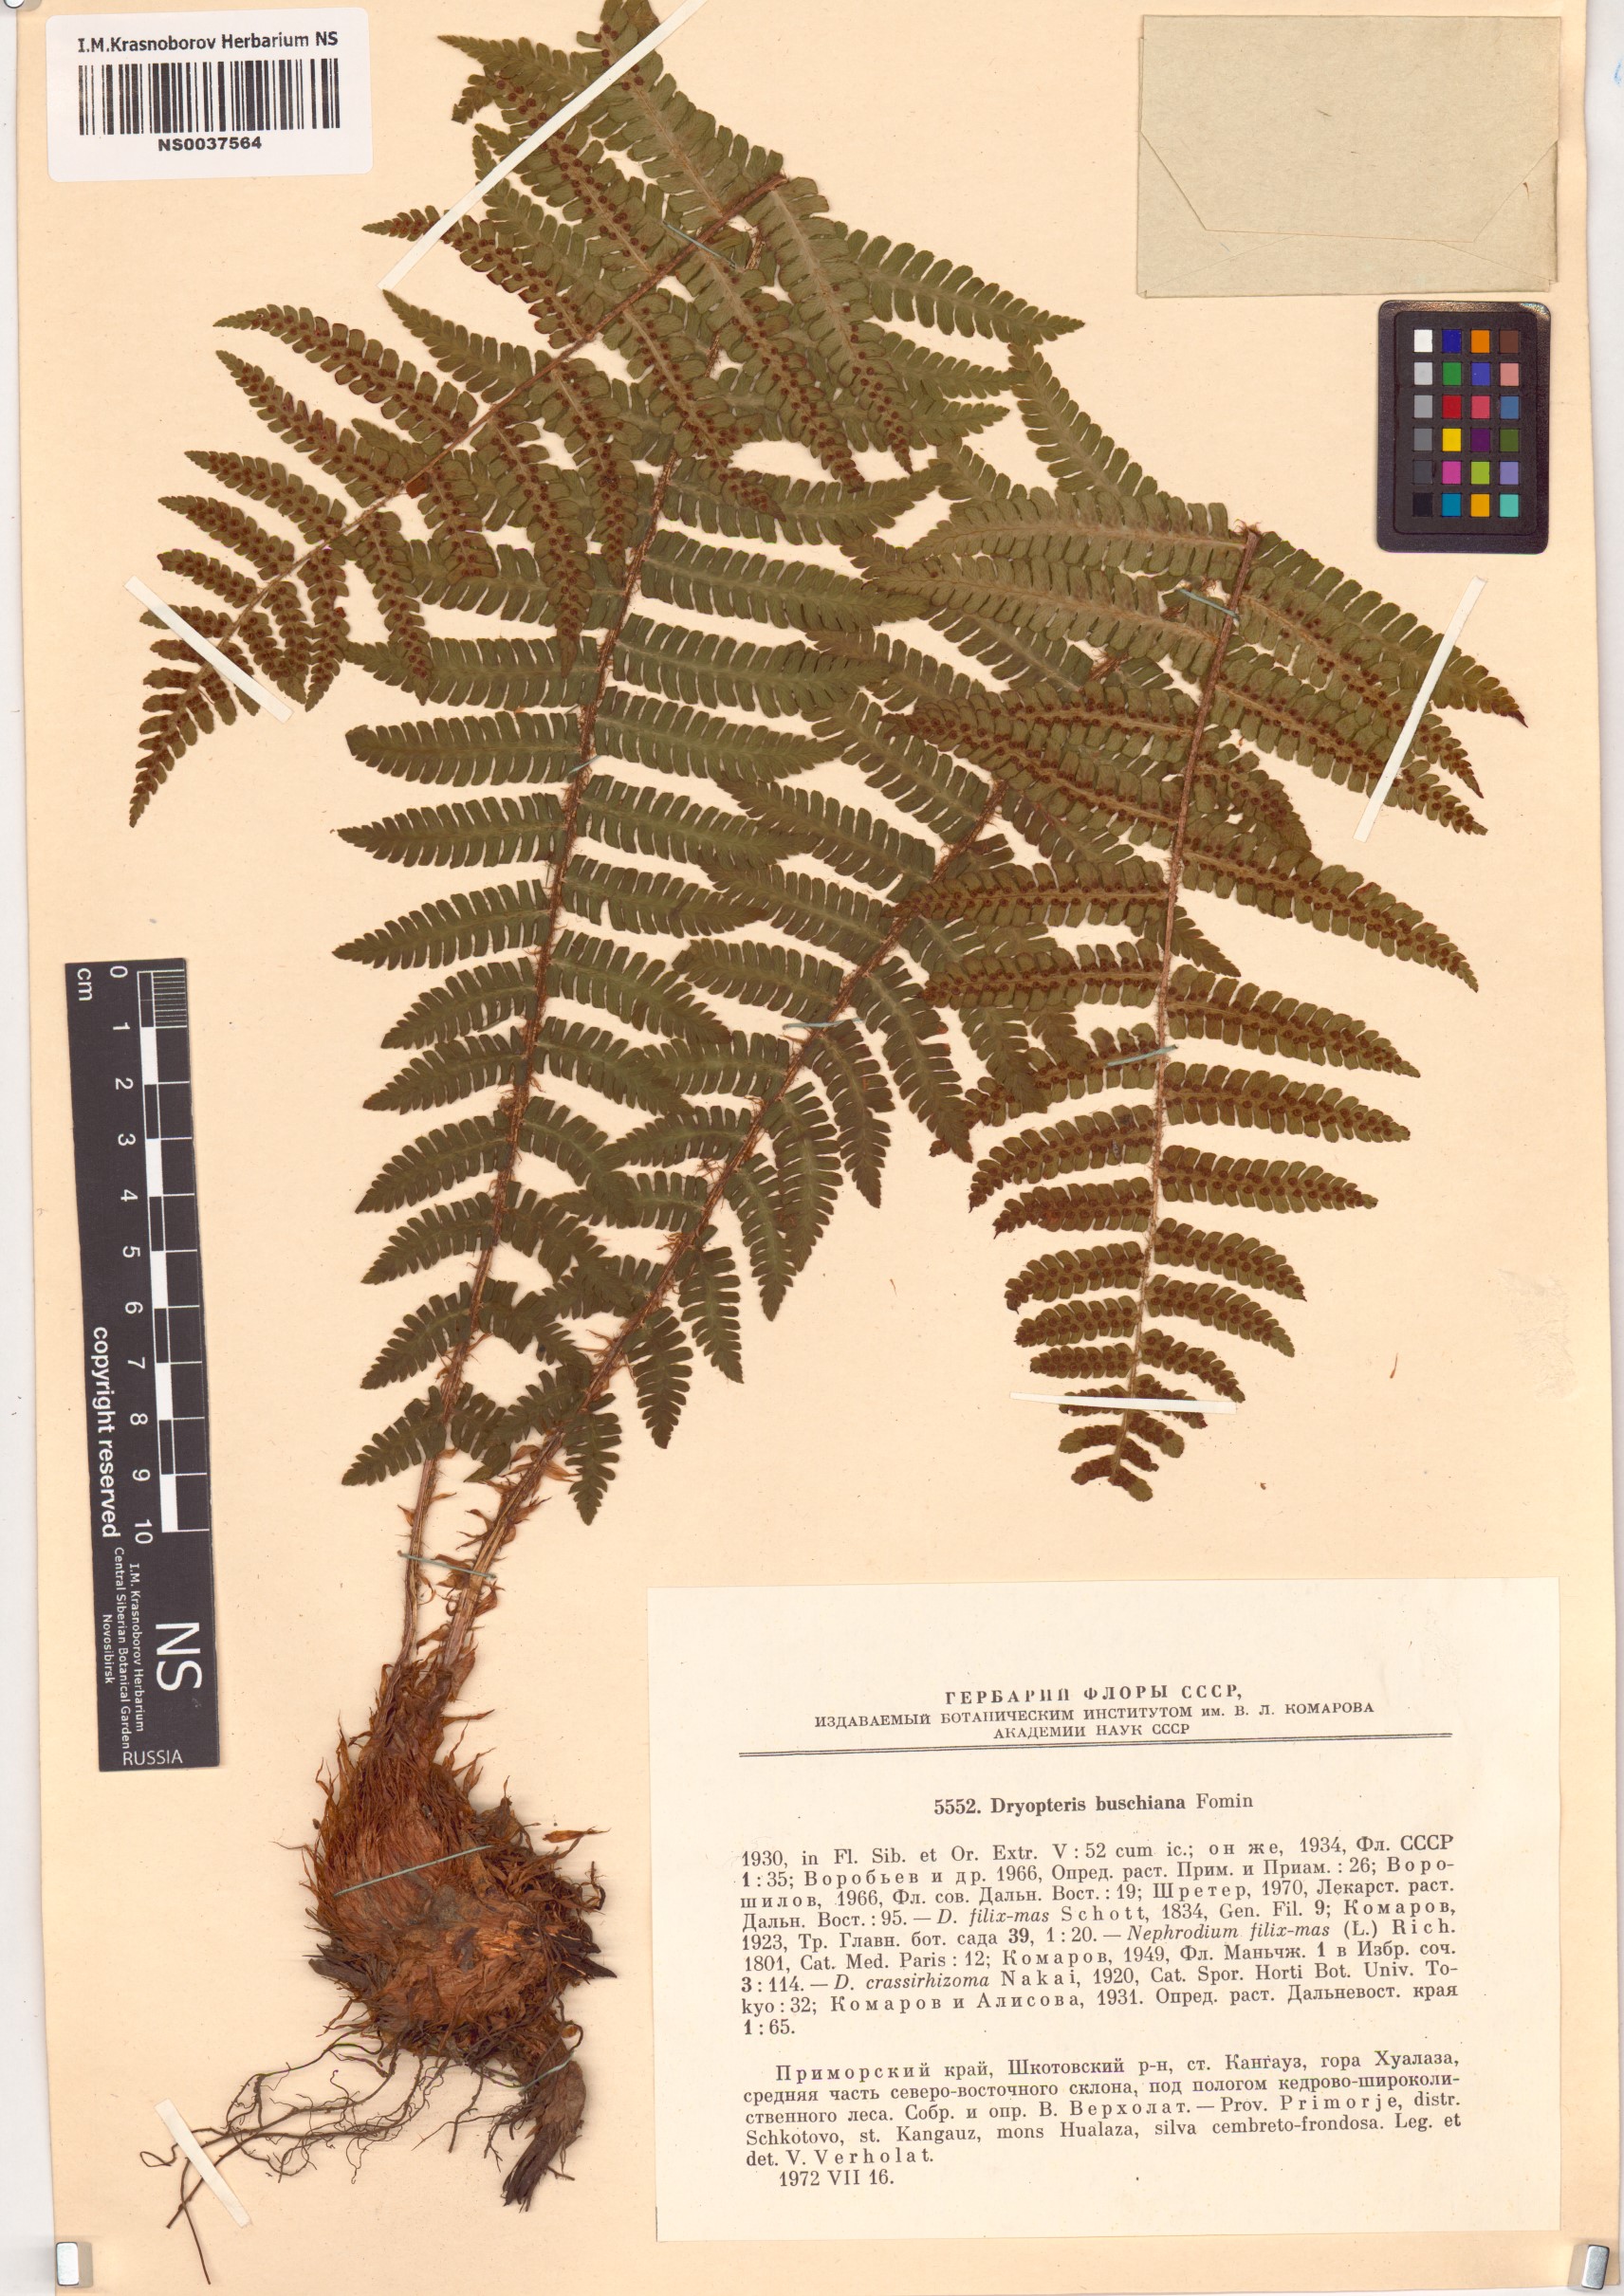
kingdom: Plantae
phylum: Tracheophyta
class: Polypodiopsida
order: Polypodiales
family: Dryopteridaceae
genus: Dryopteris
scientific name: Dryopteris crassirhizoma
